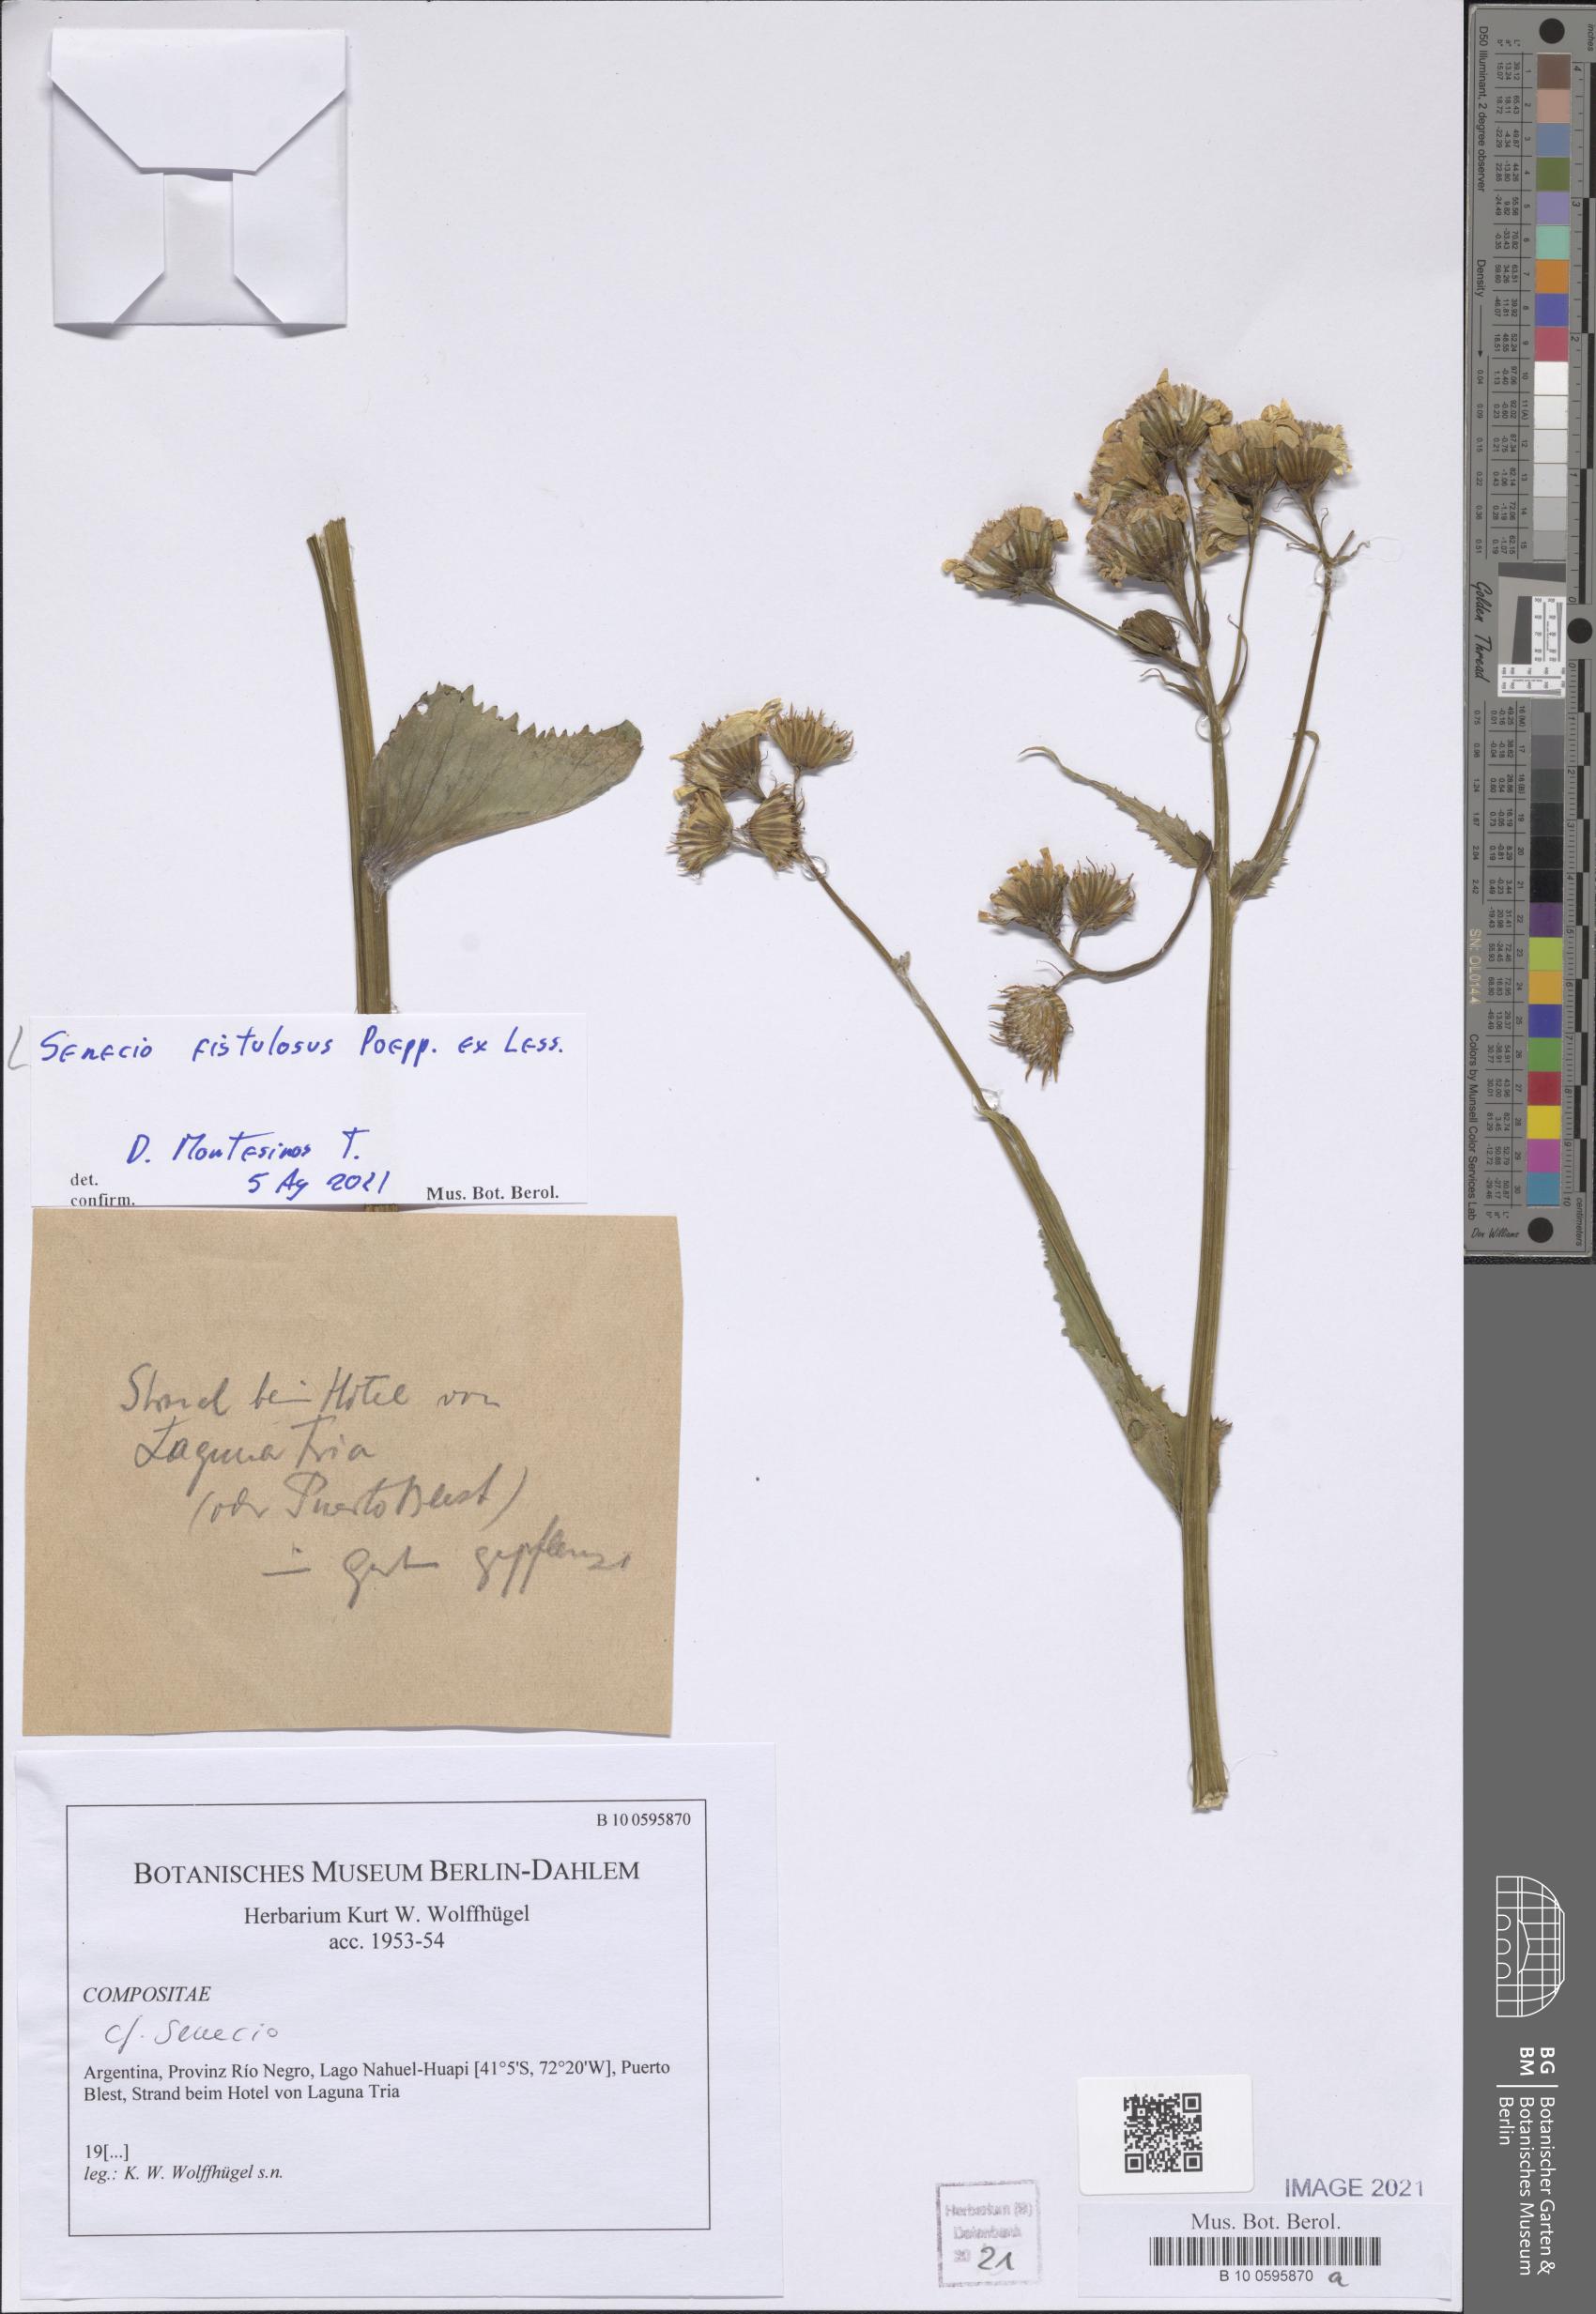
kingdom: Plantae
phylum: Tracheophyta
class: Magnoliopsida
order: Asterales
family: Asteraceae
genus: Senecio
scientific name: Senecio fistulosus
